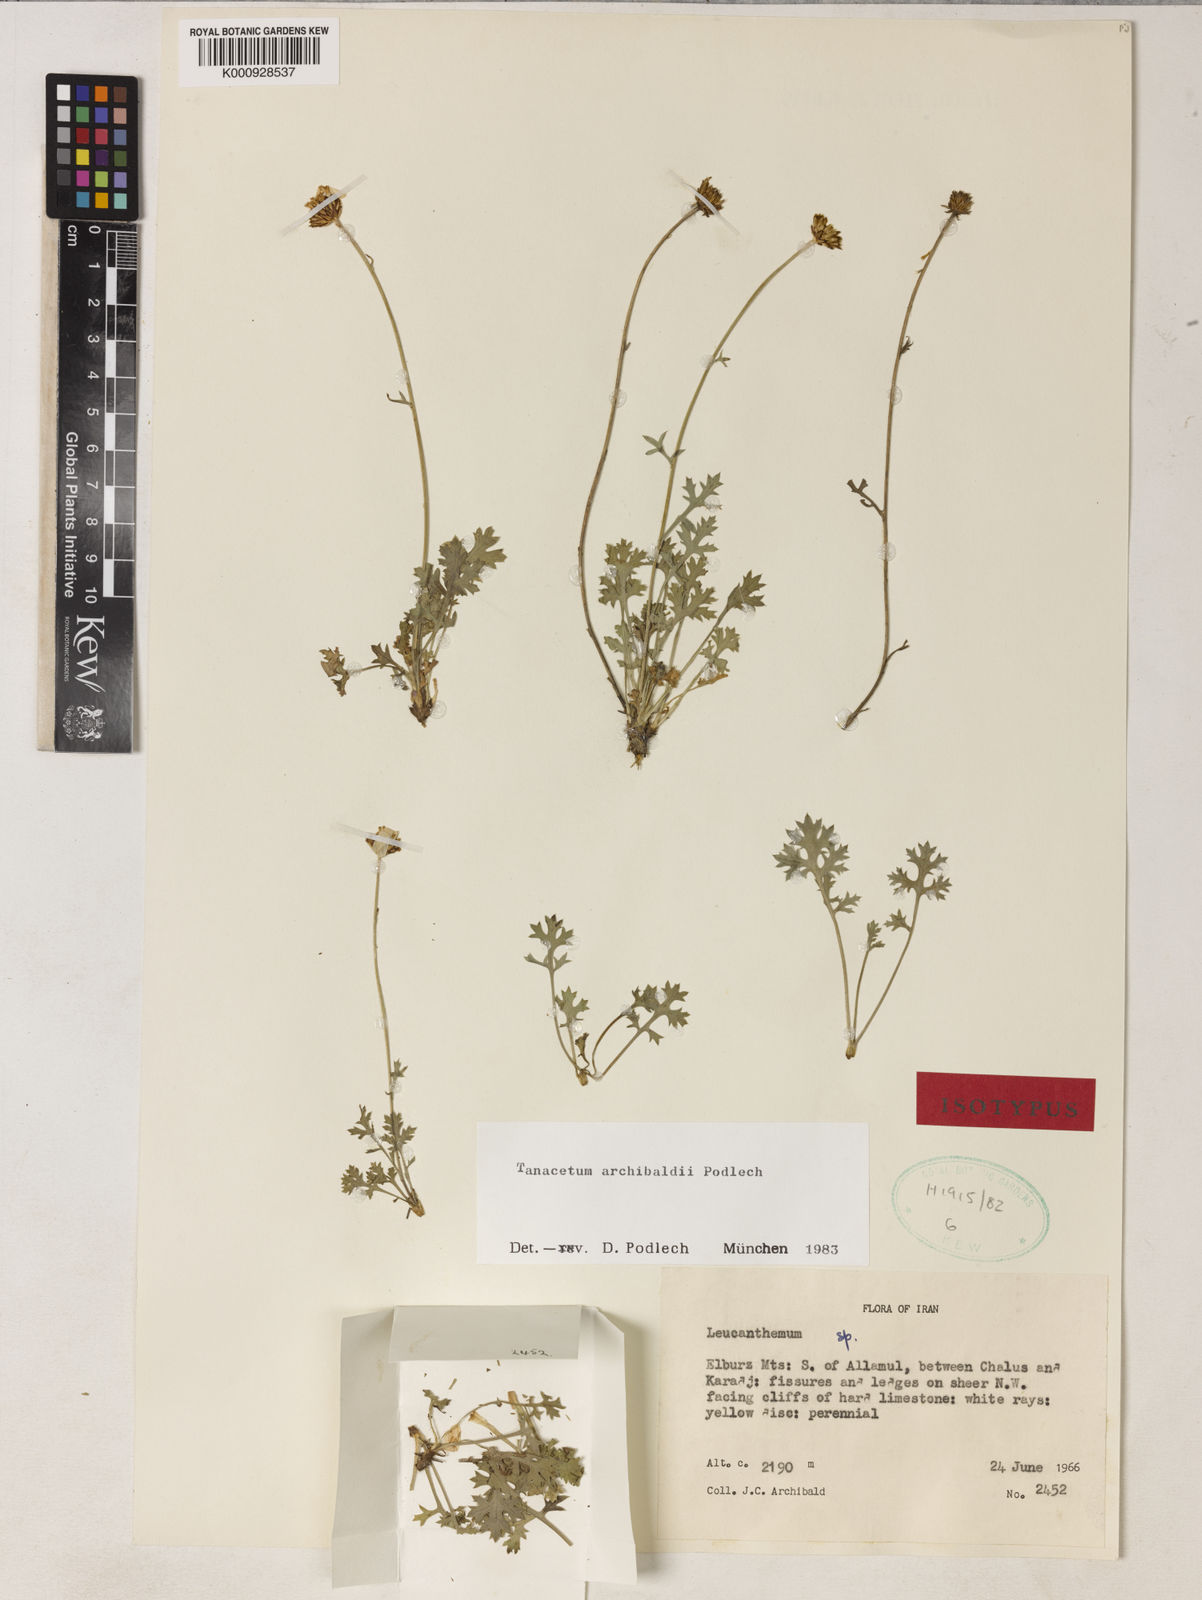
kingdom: Plantae
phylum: Tracheophyta
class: Magnoliopsida
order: Asterales
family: Asteraceae
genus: Tanacetum
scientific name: Tanacetum archibaldii
